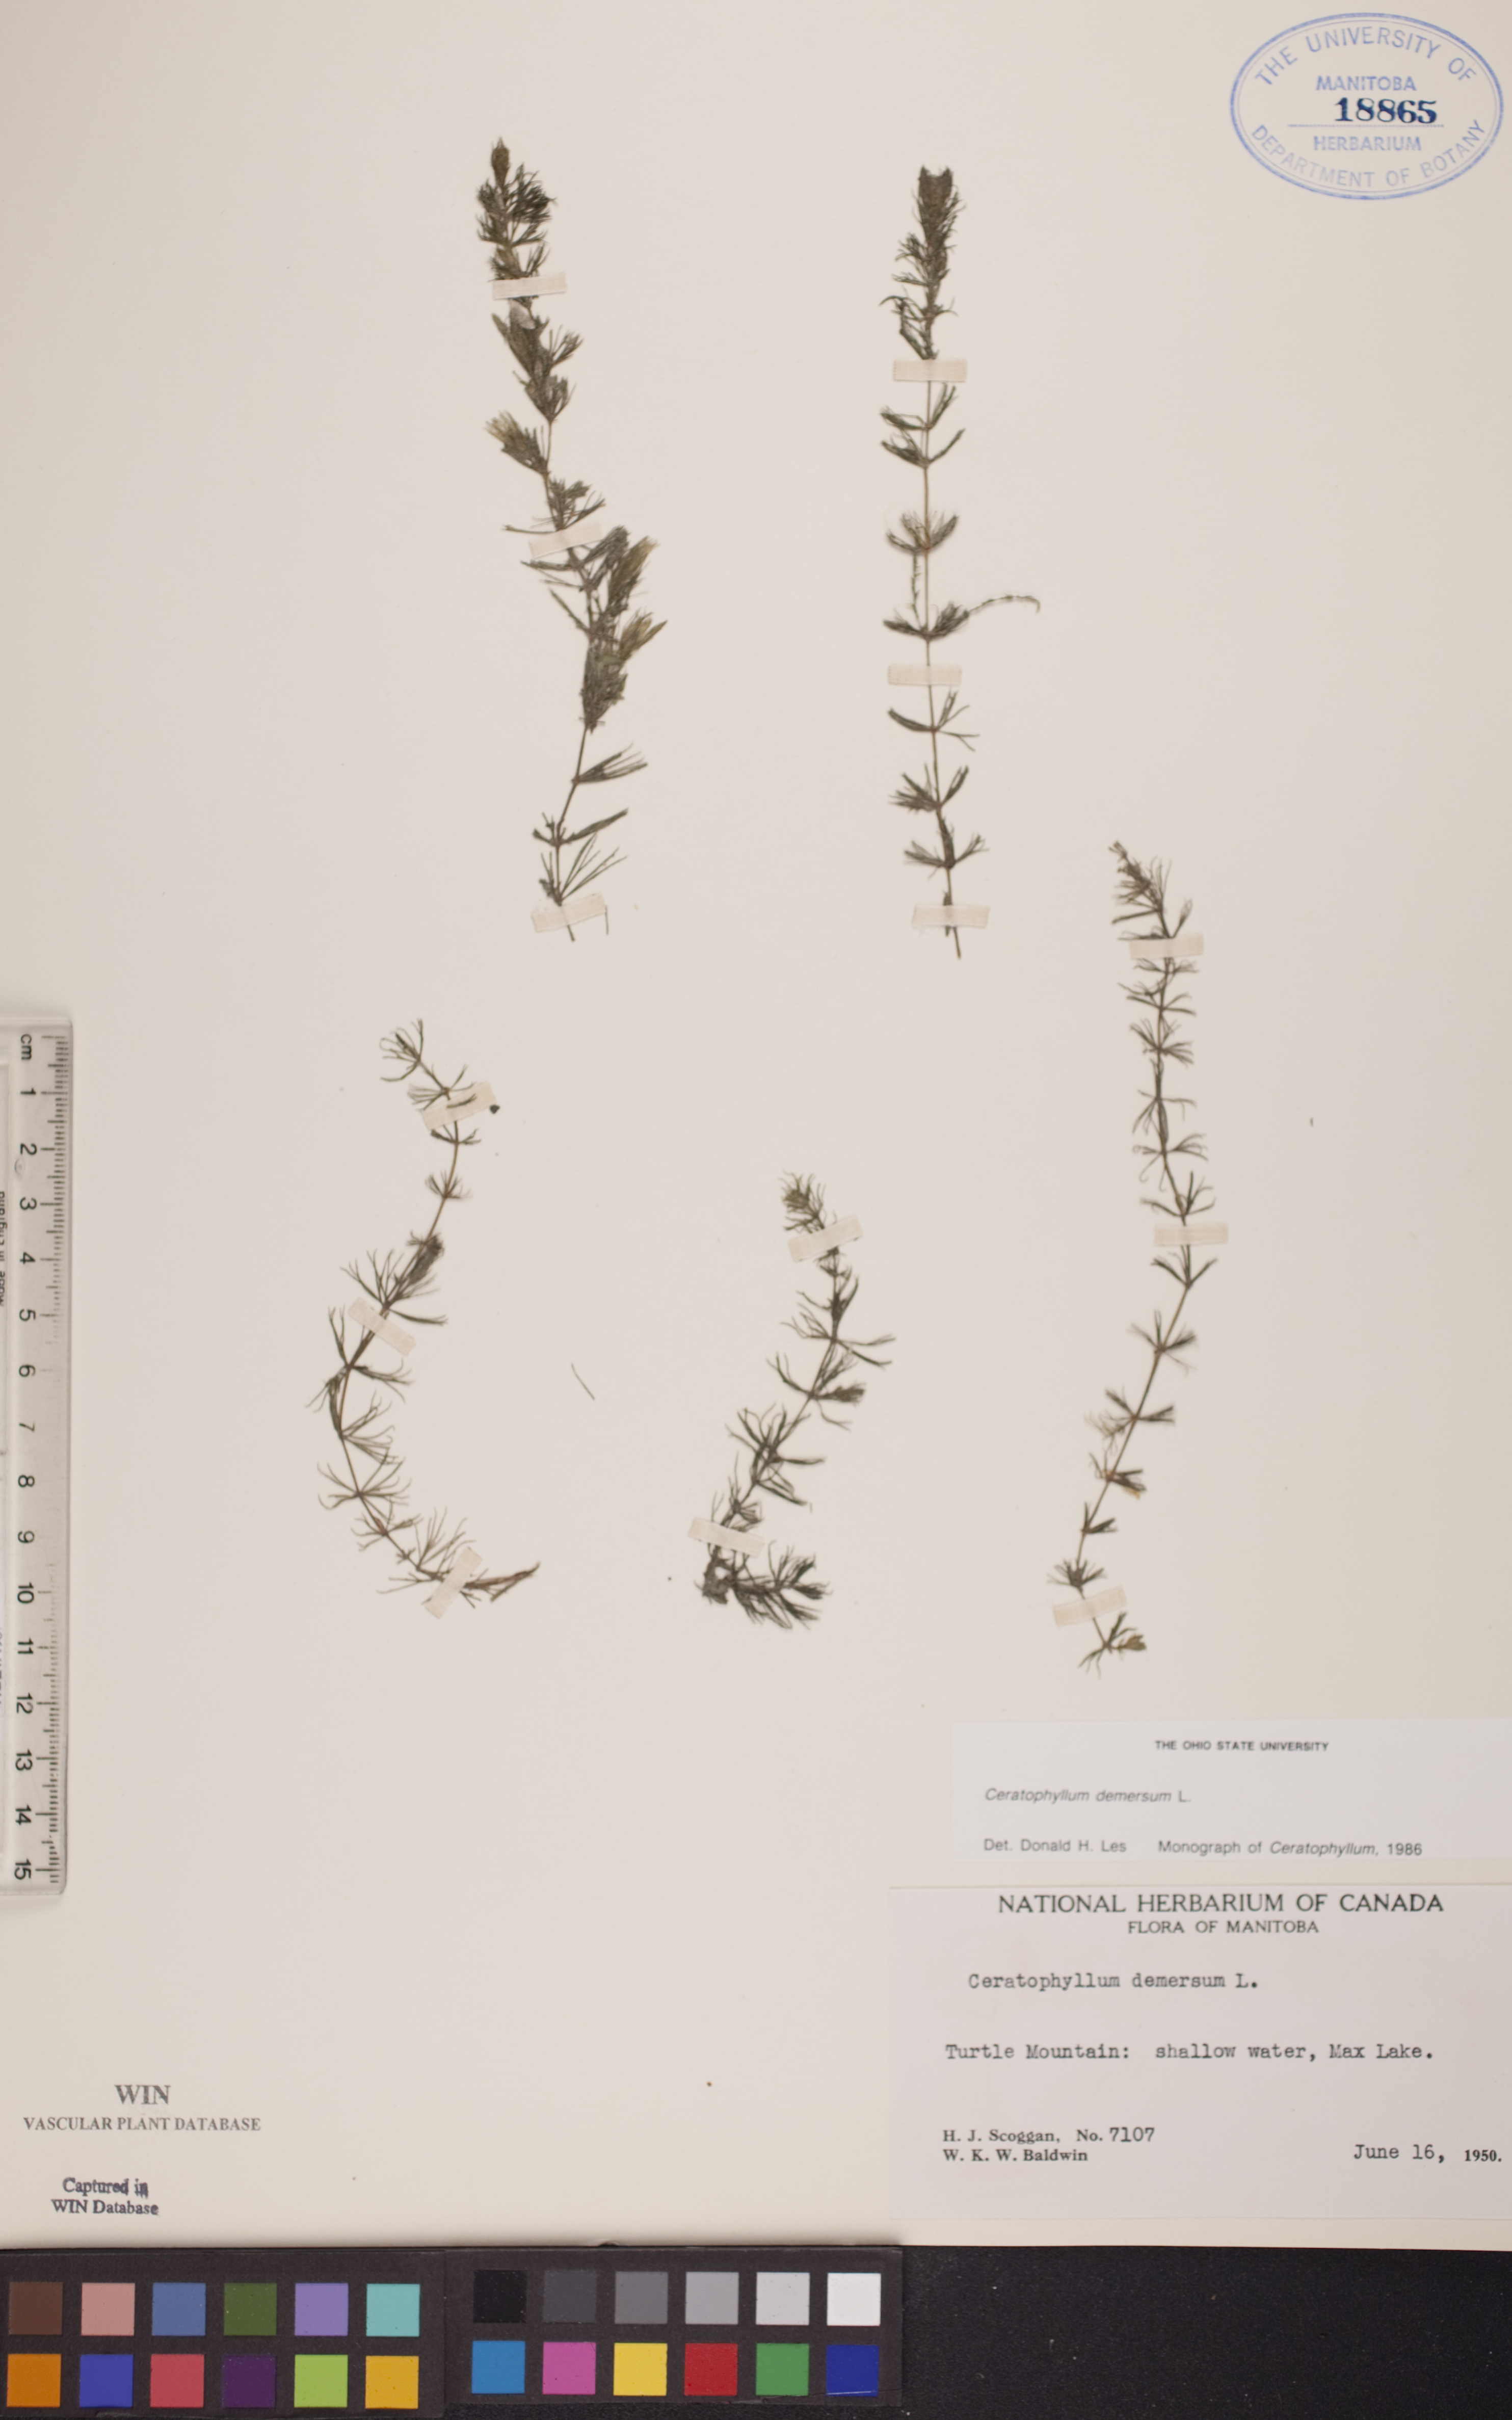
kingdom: Plantae
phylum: Tracheophyta
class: Magnoliopsida
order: Ceratophyllales
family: Ceratophyllaceae
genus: Ceratophyllum
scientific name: Ceratophyllum demersum
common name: Rigid hornwort
